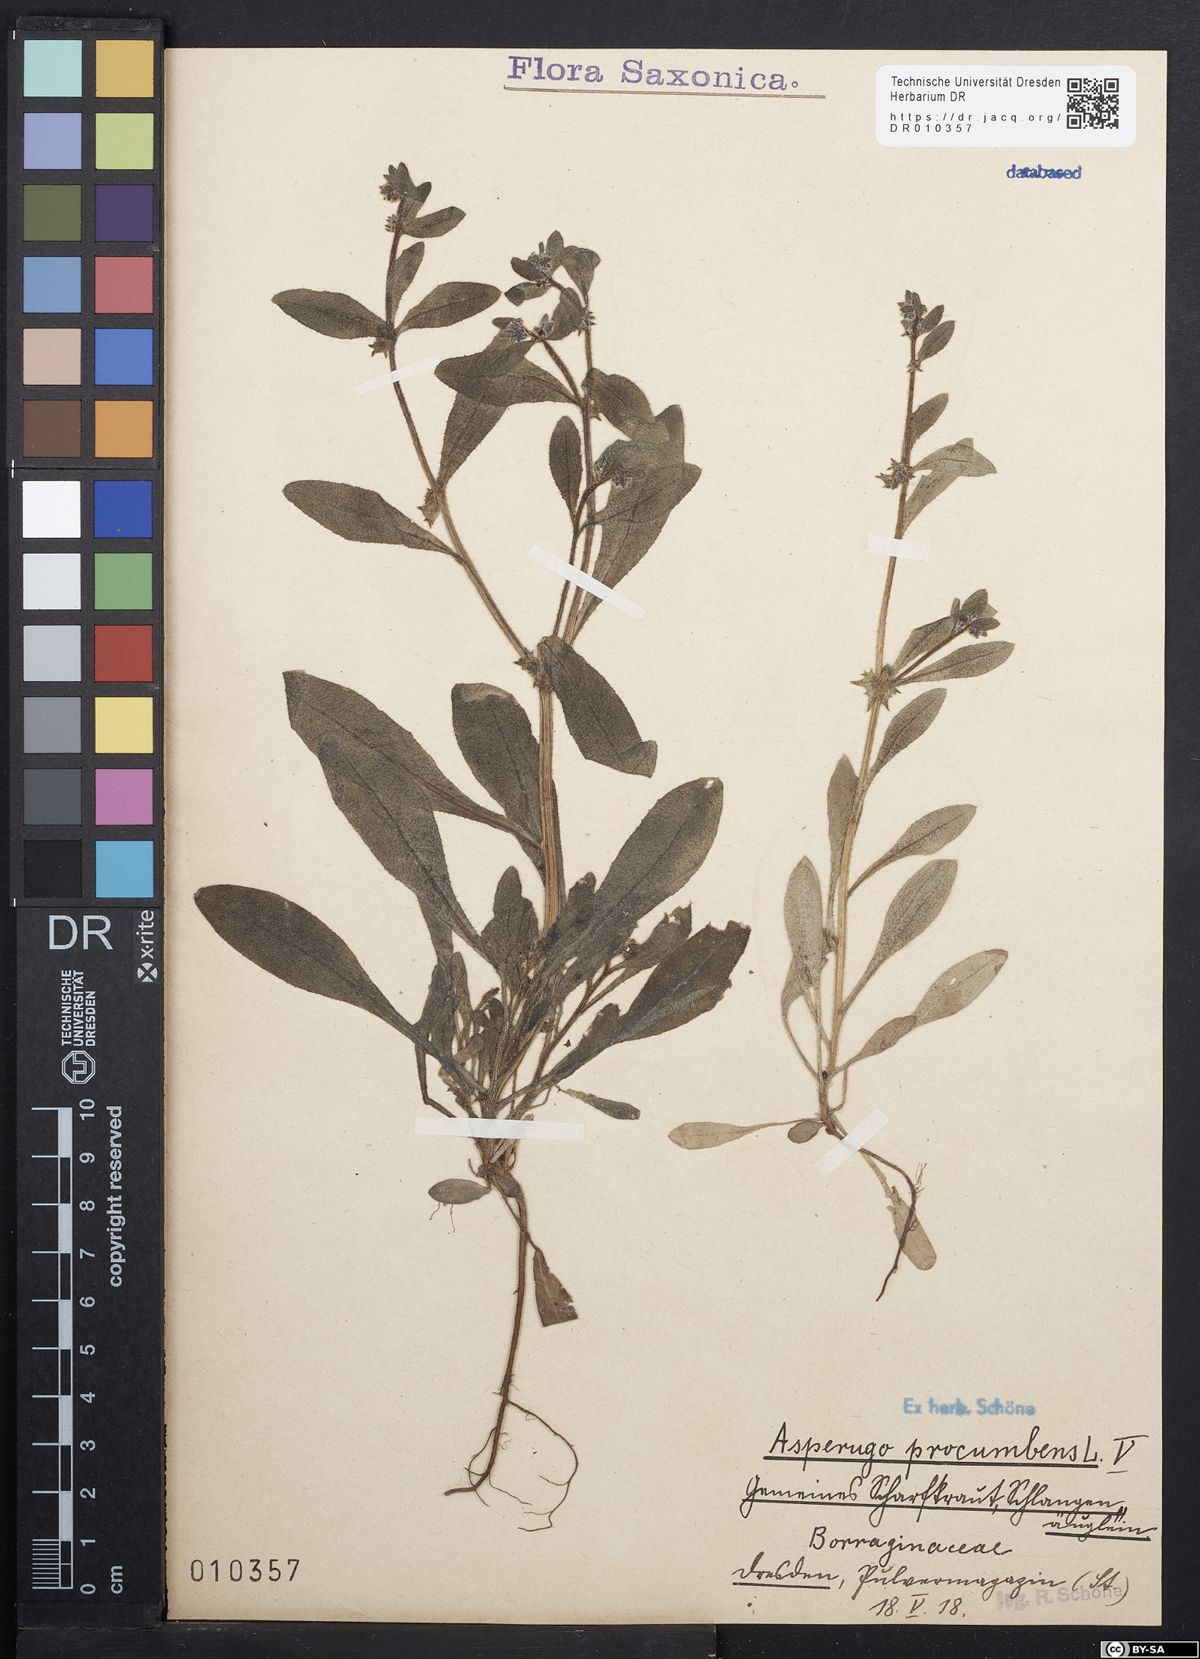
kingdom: Plantae
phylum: Tracheophyta
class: Magnoliopsida
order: Boraginales
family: Boraginaceae
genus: Asperugo
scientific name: Asperugo procumbens
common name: Madwort
